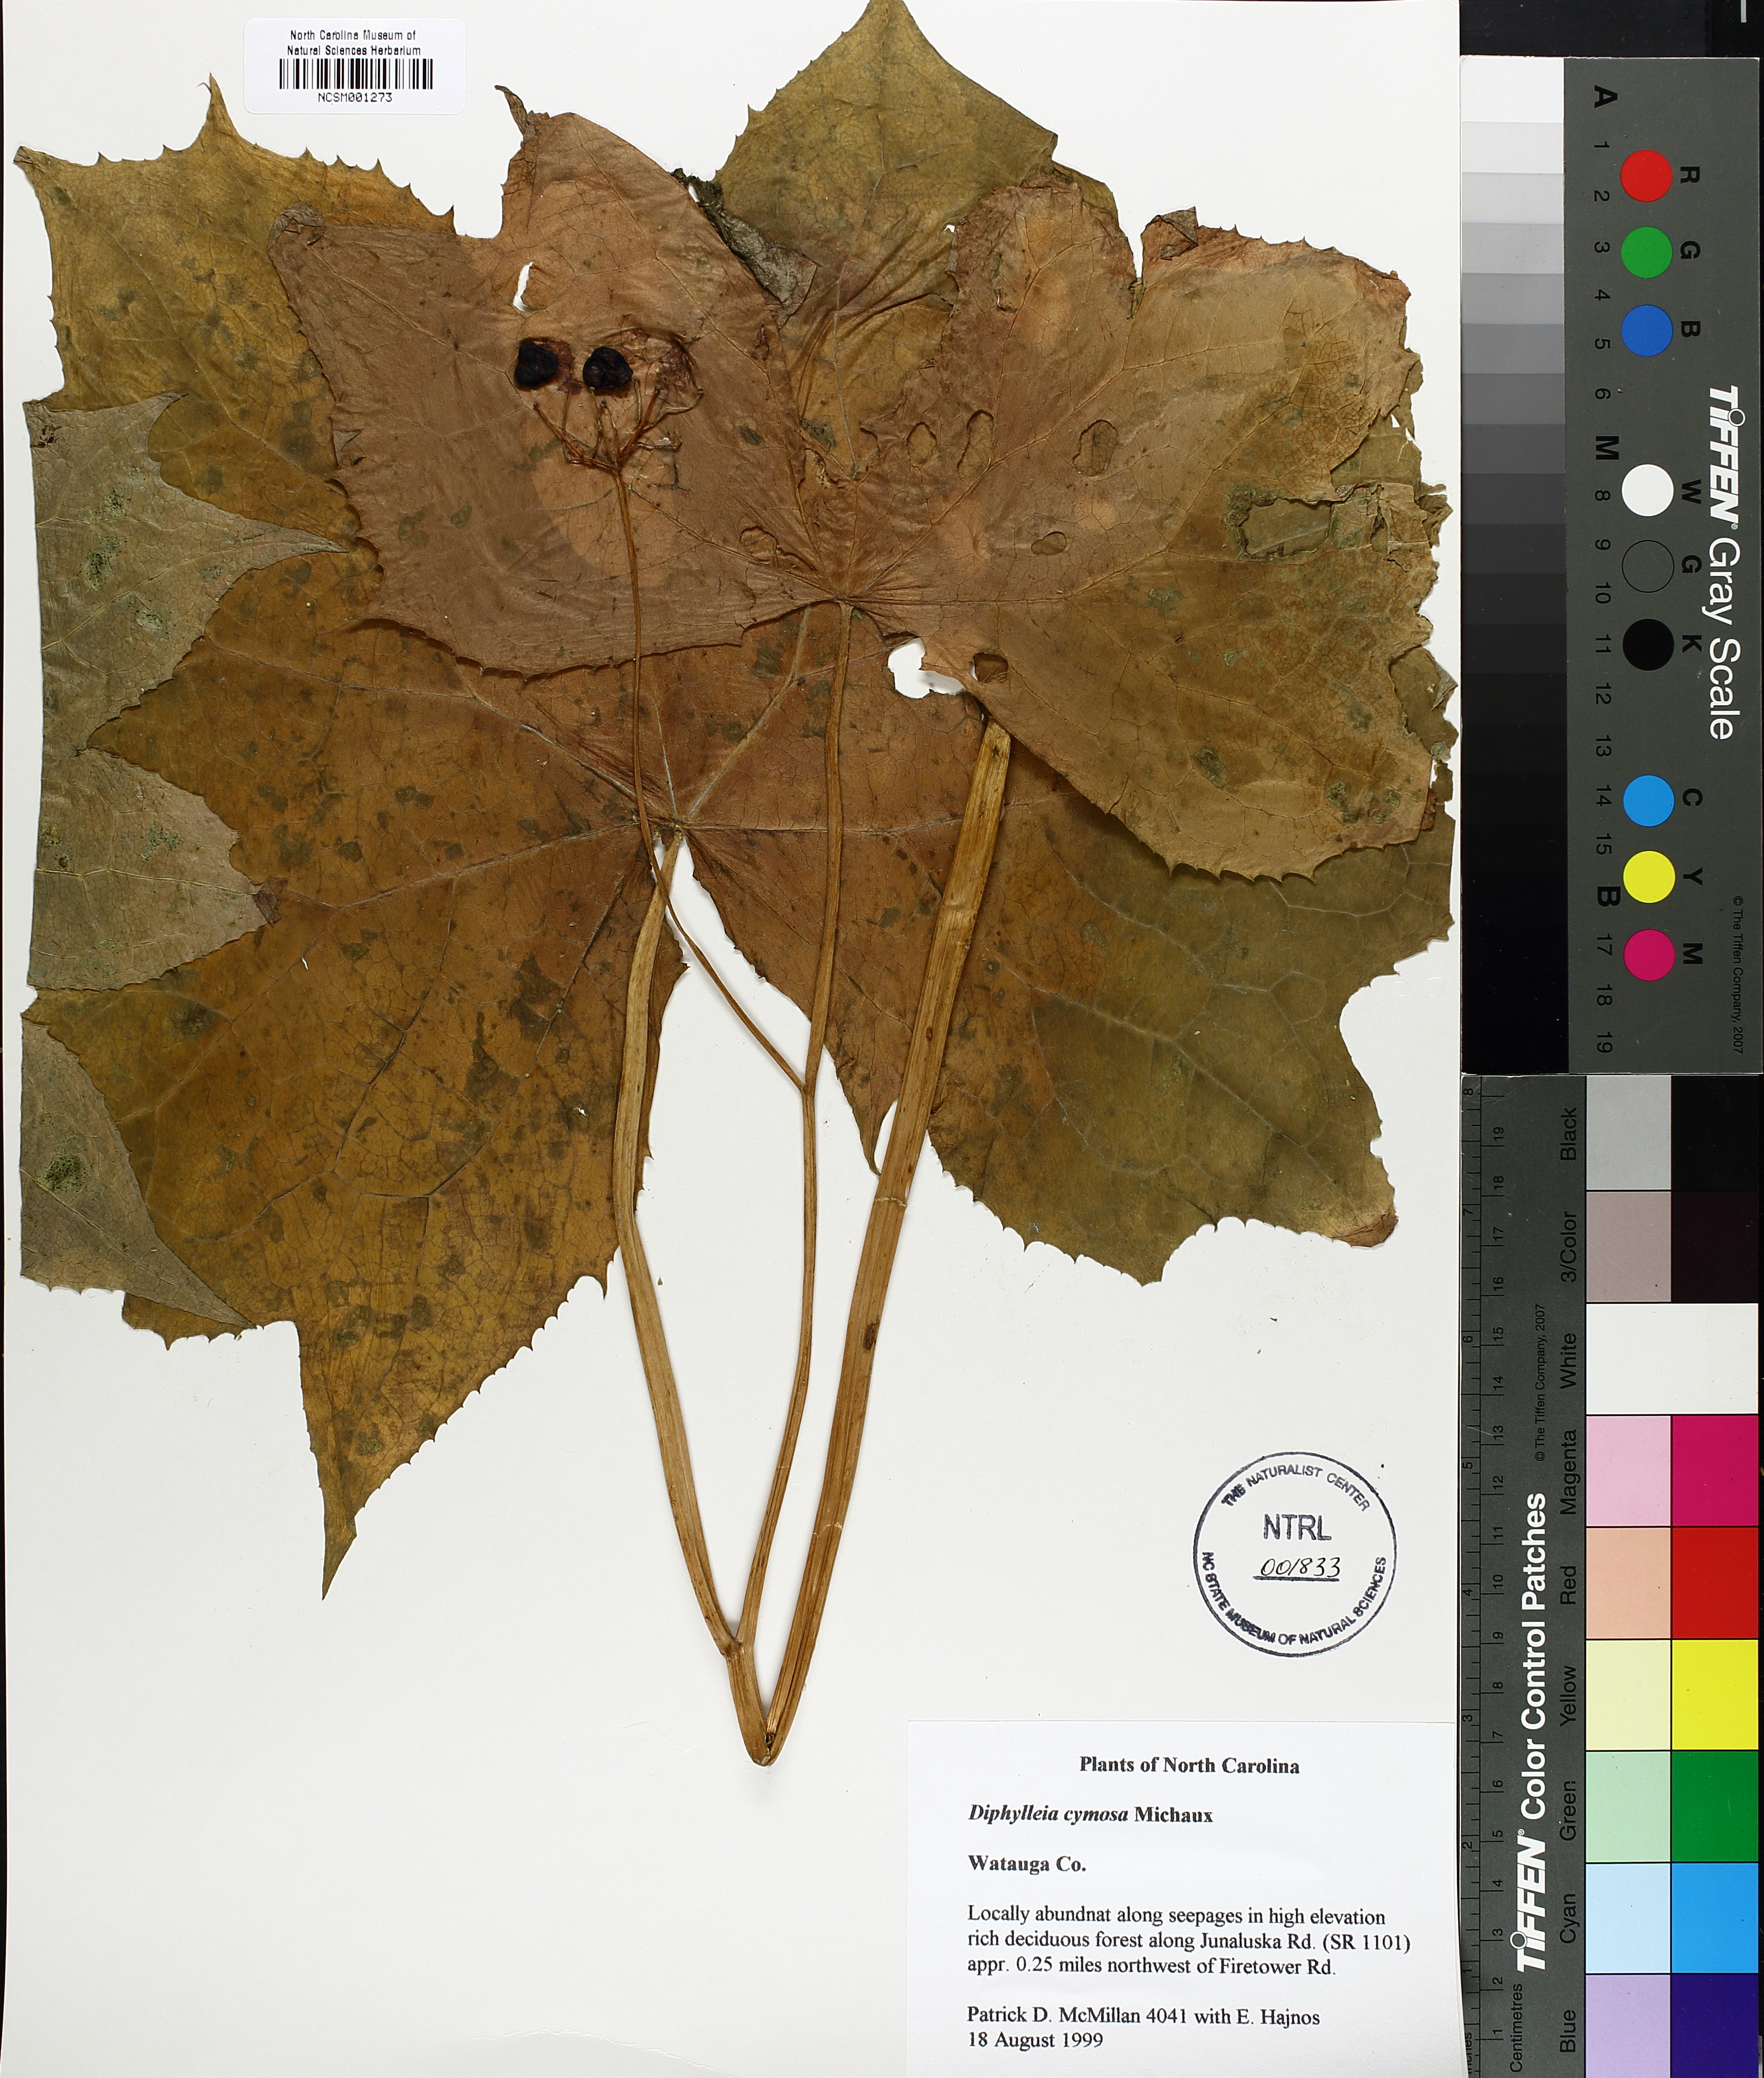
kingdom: Plantae
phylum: Tracheophyta
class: Magnoliopsida
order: Ranunculales
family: Berberidaceae
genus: Diphylleia
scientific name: Diphylleia cymosa
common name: Umbrella-leaf
